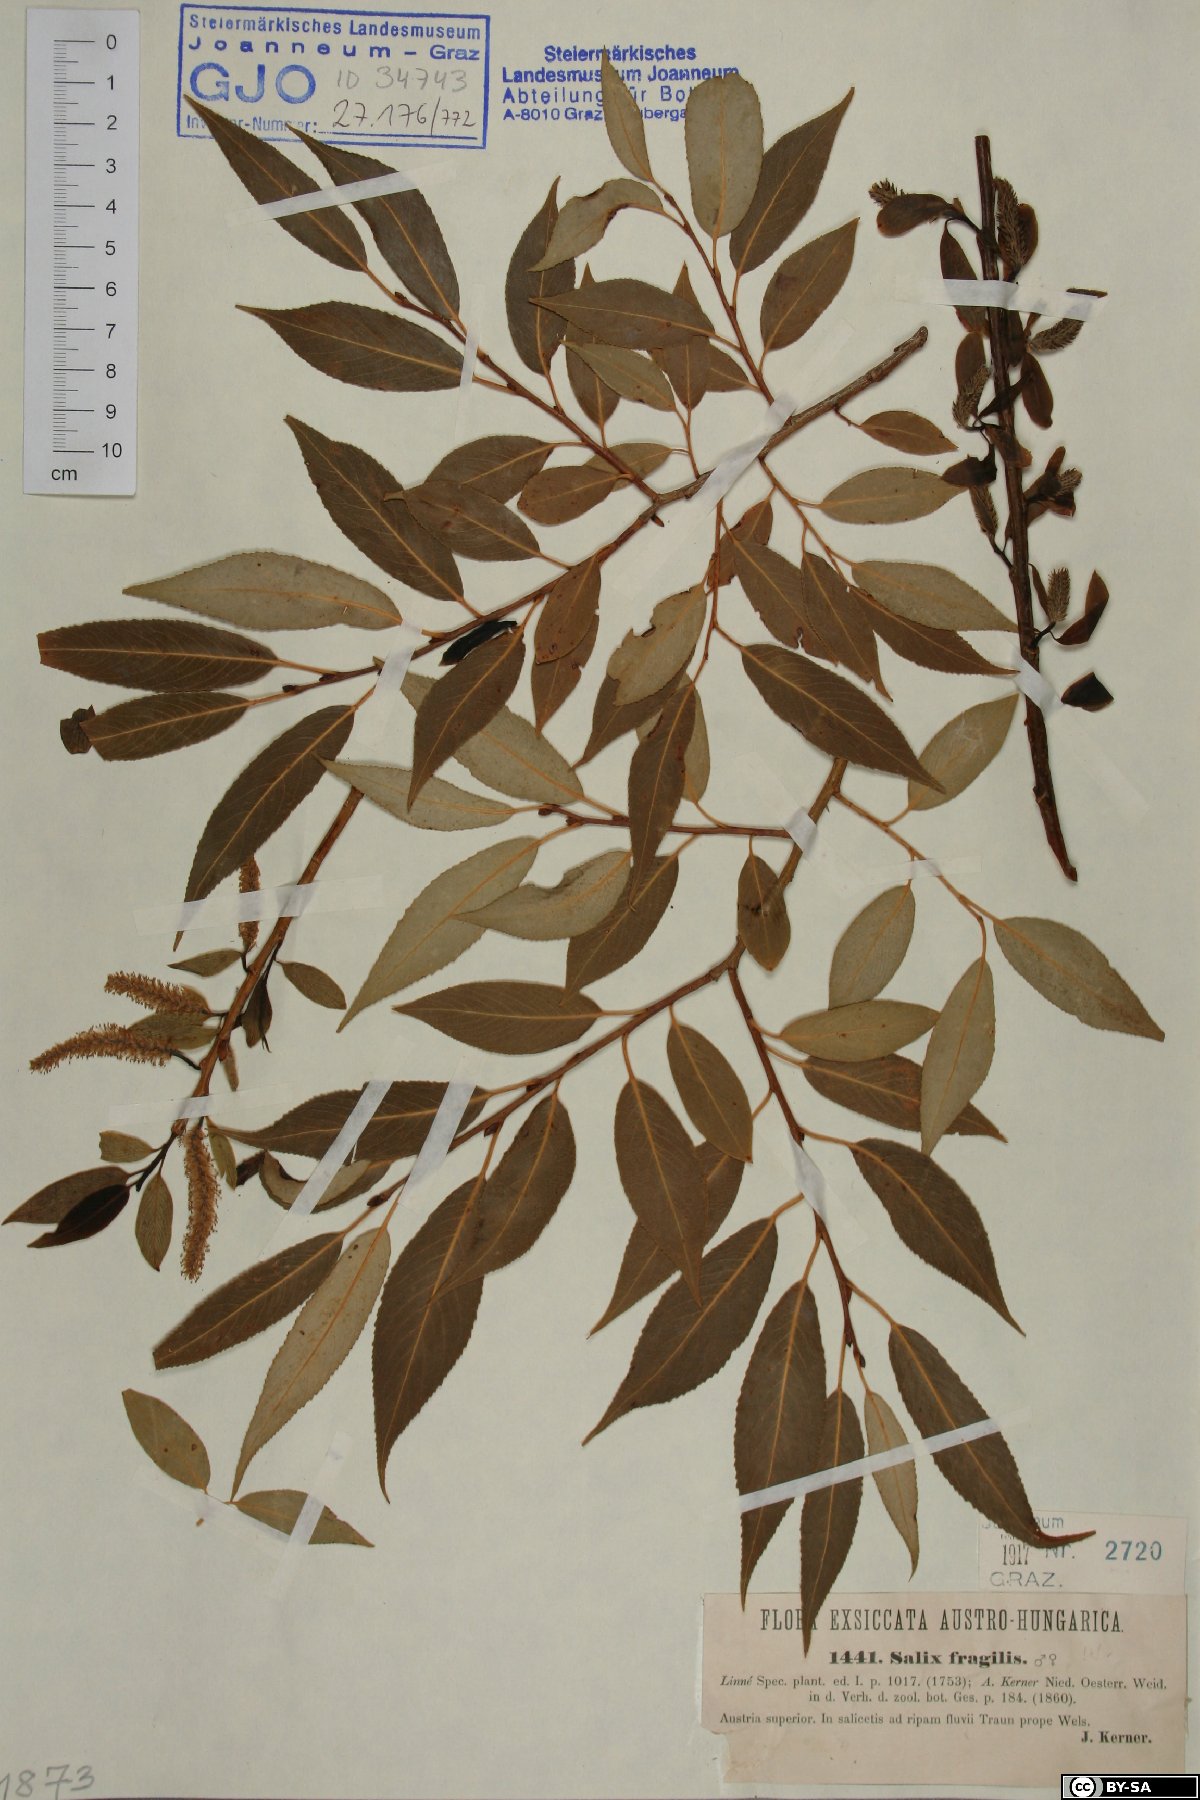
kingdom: Plantae
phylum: Tracheophyta
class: Magnoliopsida
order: Malpighiales
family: Salicaceae
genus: Salix
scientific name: Salix fragilis
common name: Crack willow
